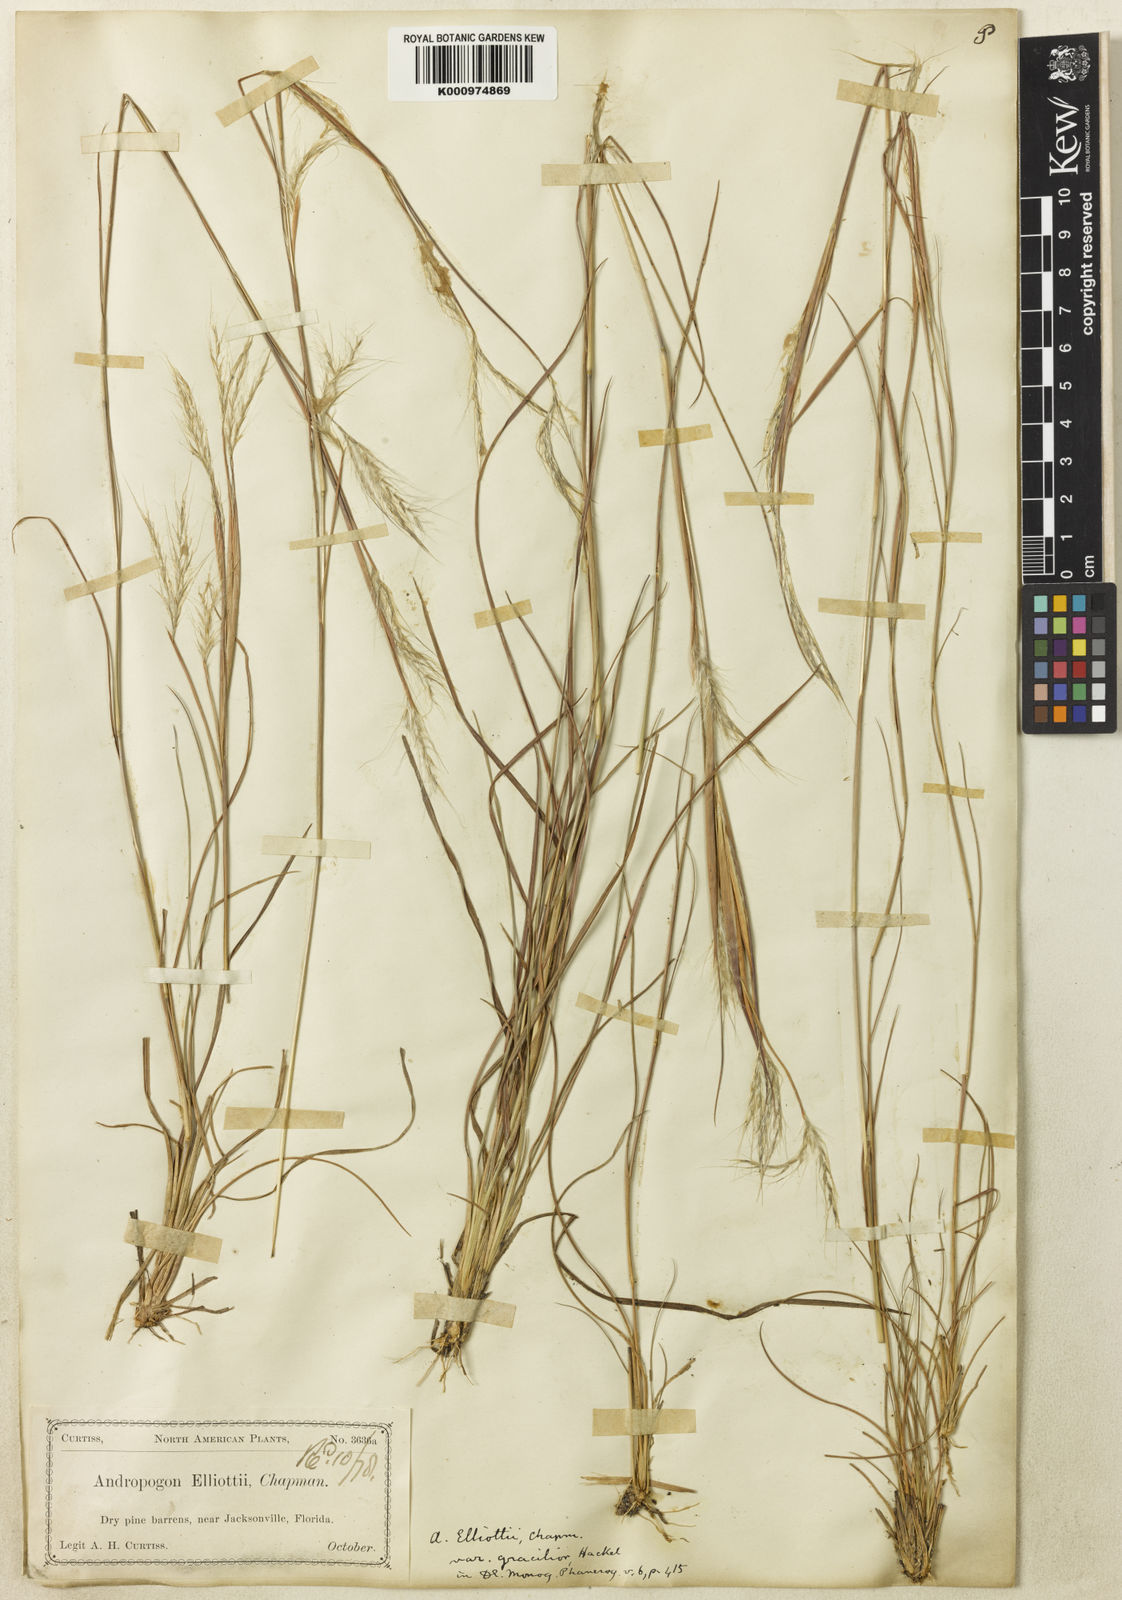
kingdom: Plantae
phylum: Tracheophyta
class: Liliopsida
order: Poales
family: Poaceae
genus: Andropogon
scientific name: Andropogon gyrans
